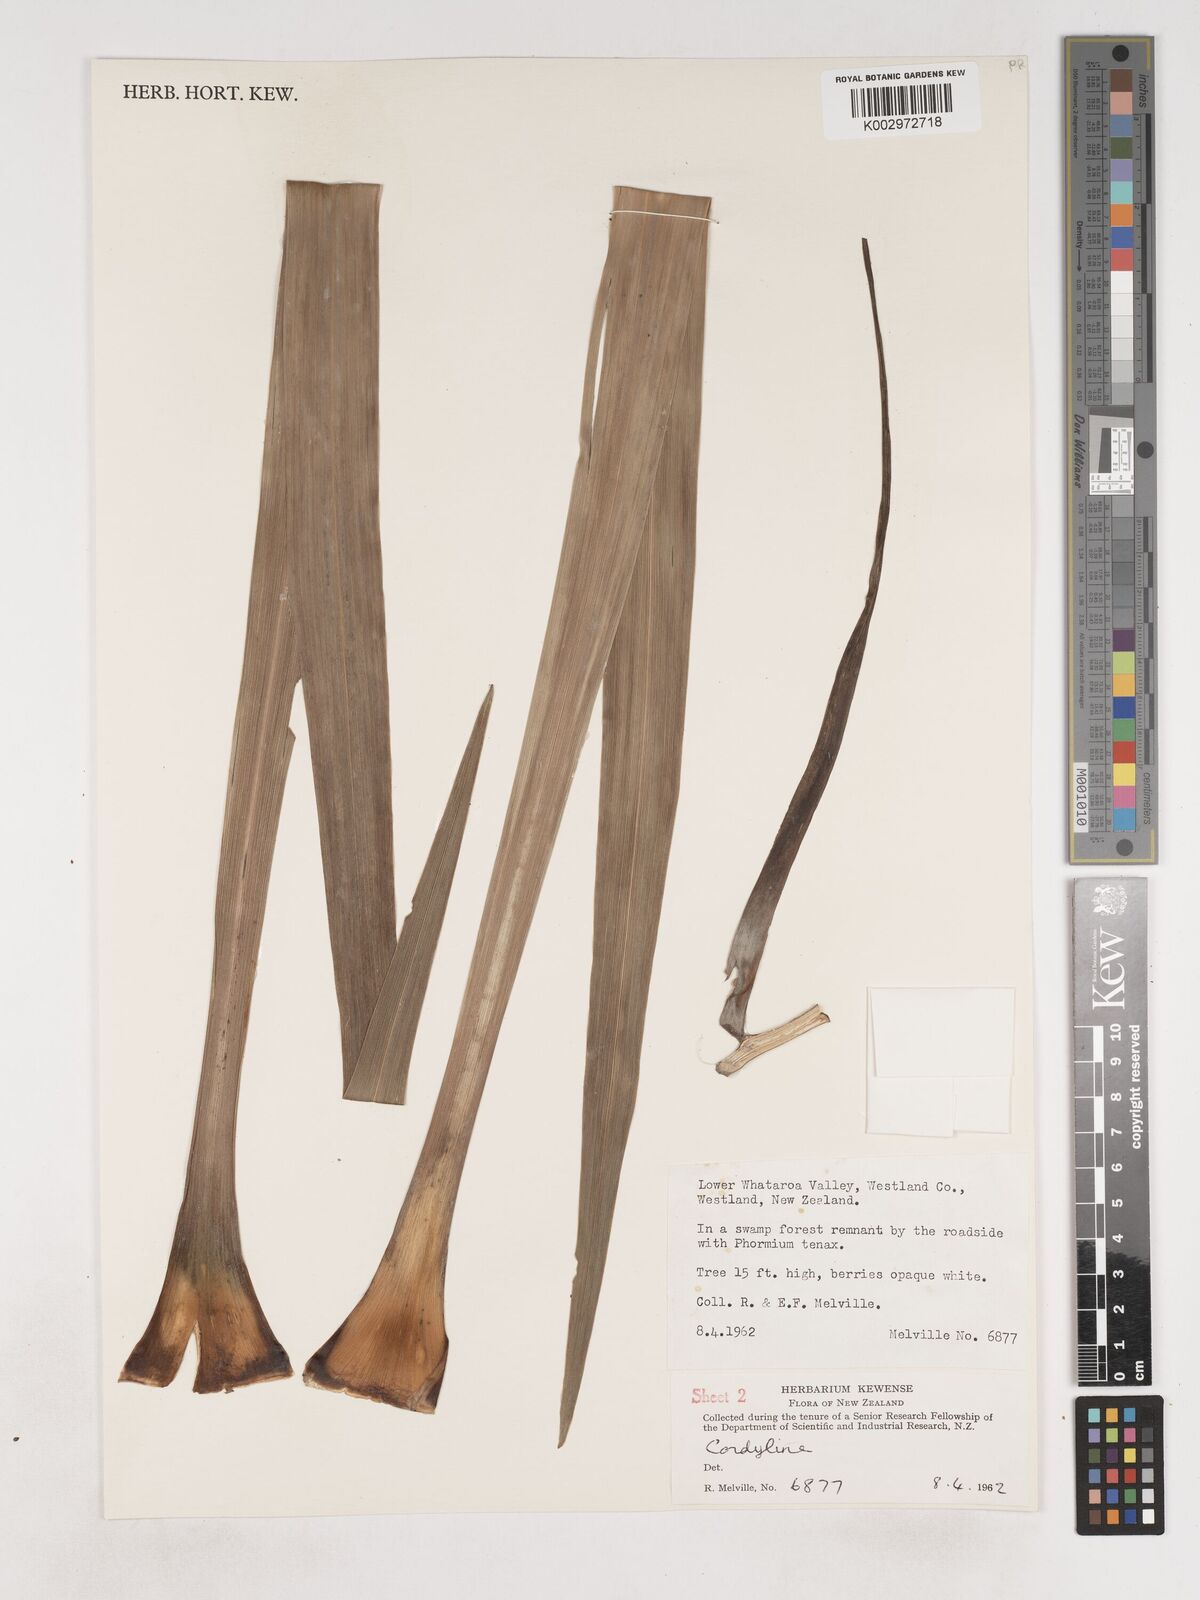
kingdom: Plantae
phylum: Tracheophyta
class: Liliopsida
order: Asparagales
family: Asparagaceae
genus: Cordyline
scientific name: Cordyline
